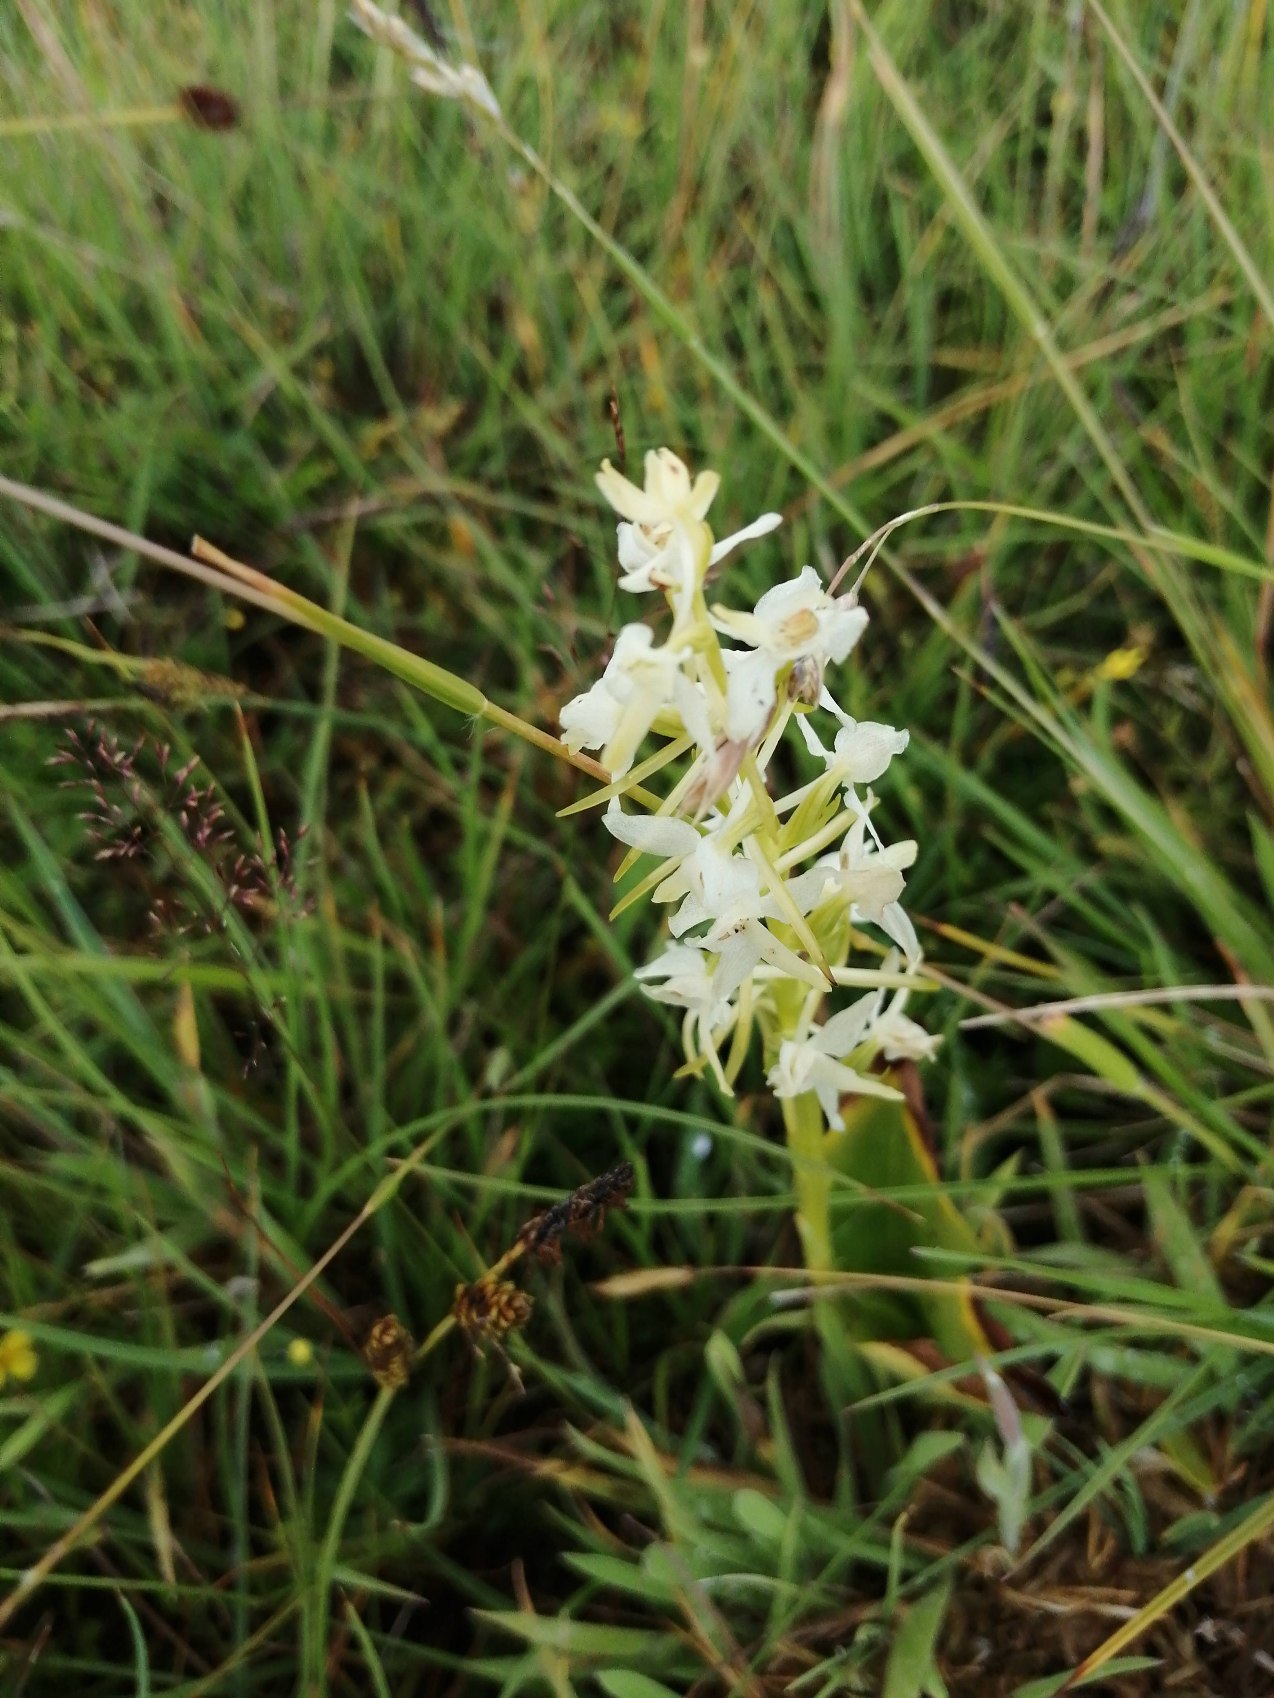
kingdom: Plantae
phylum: Tracheophyta
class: Liliopsida
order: Asparagales
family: Orchidaceae
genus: Platanthera
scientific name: Platanthera bifolia
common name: Bakke-gøgelilje
